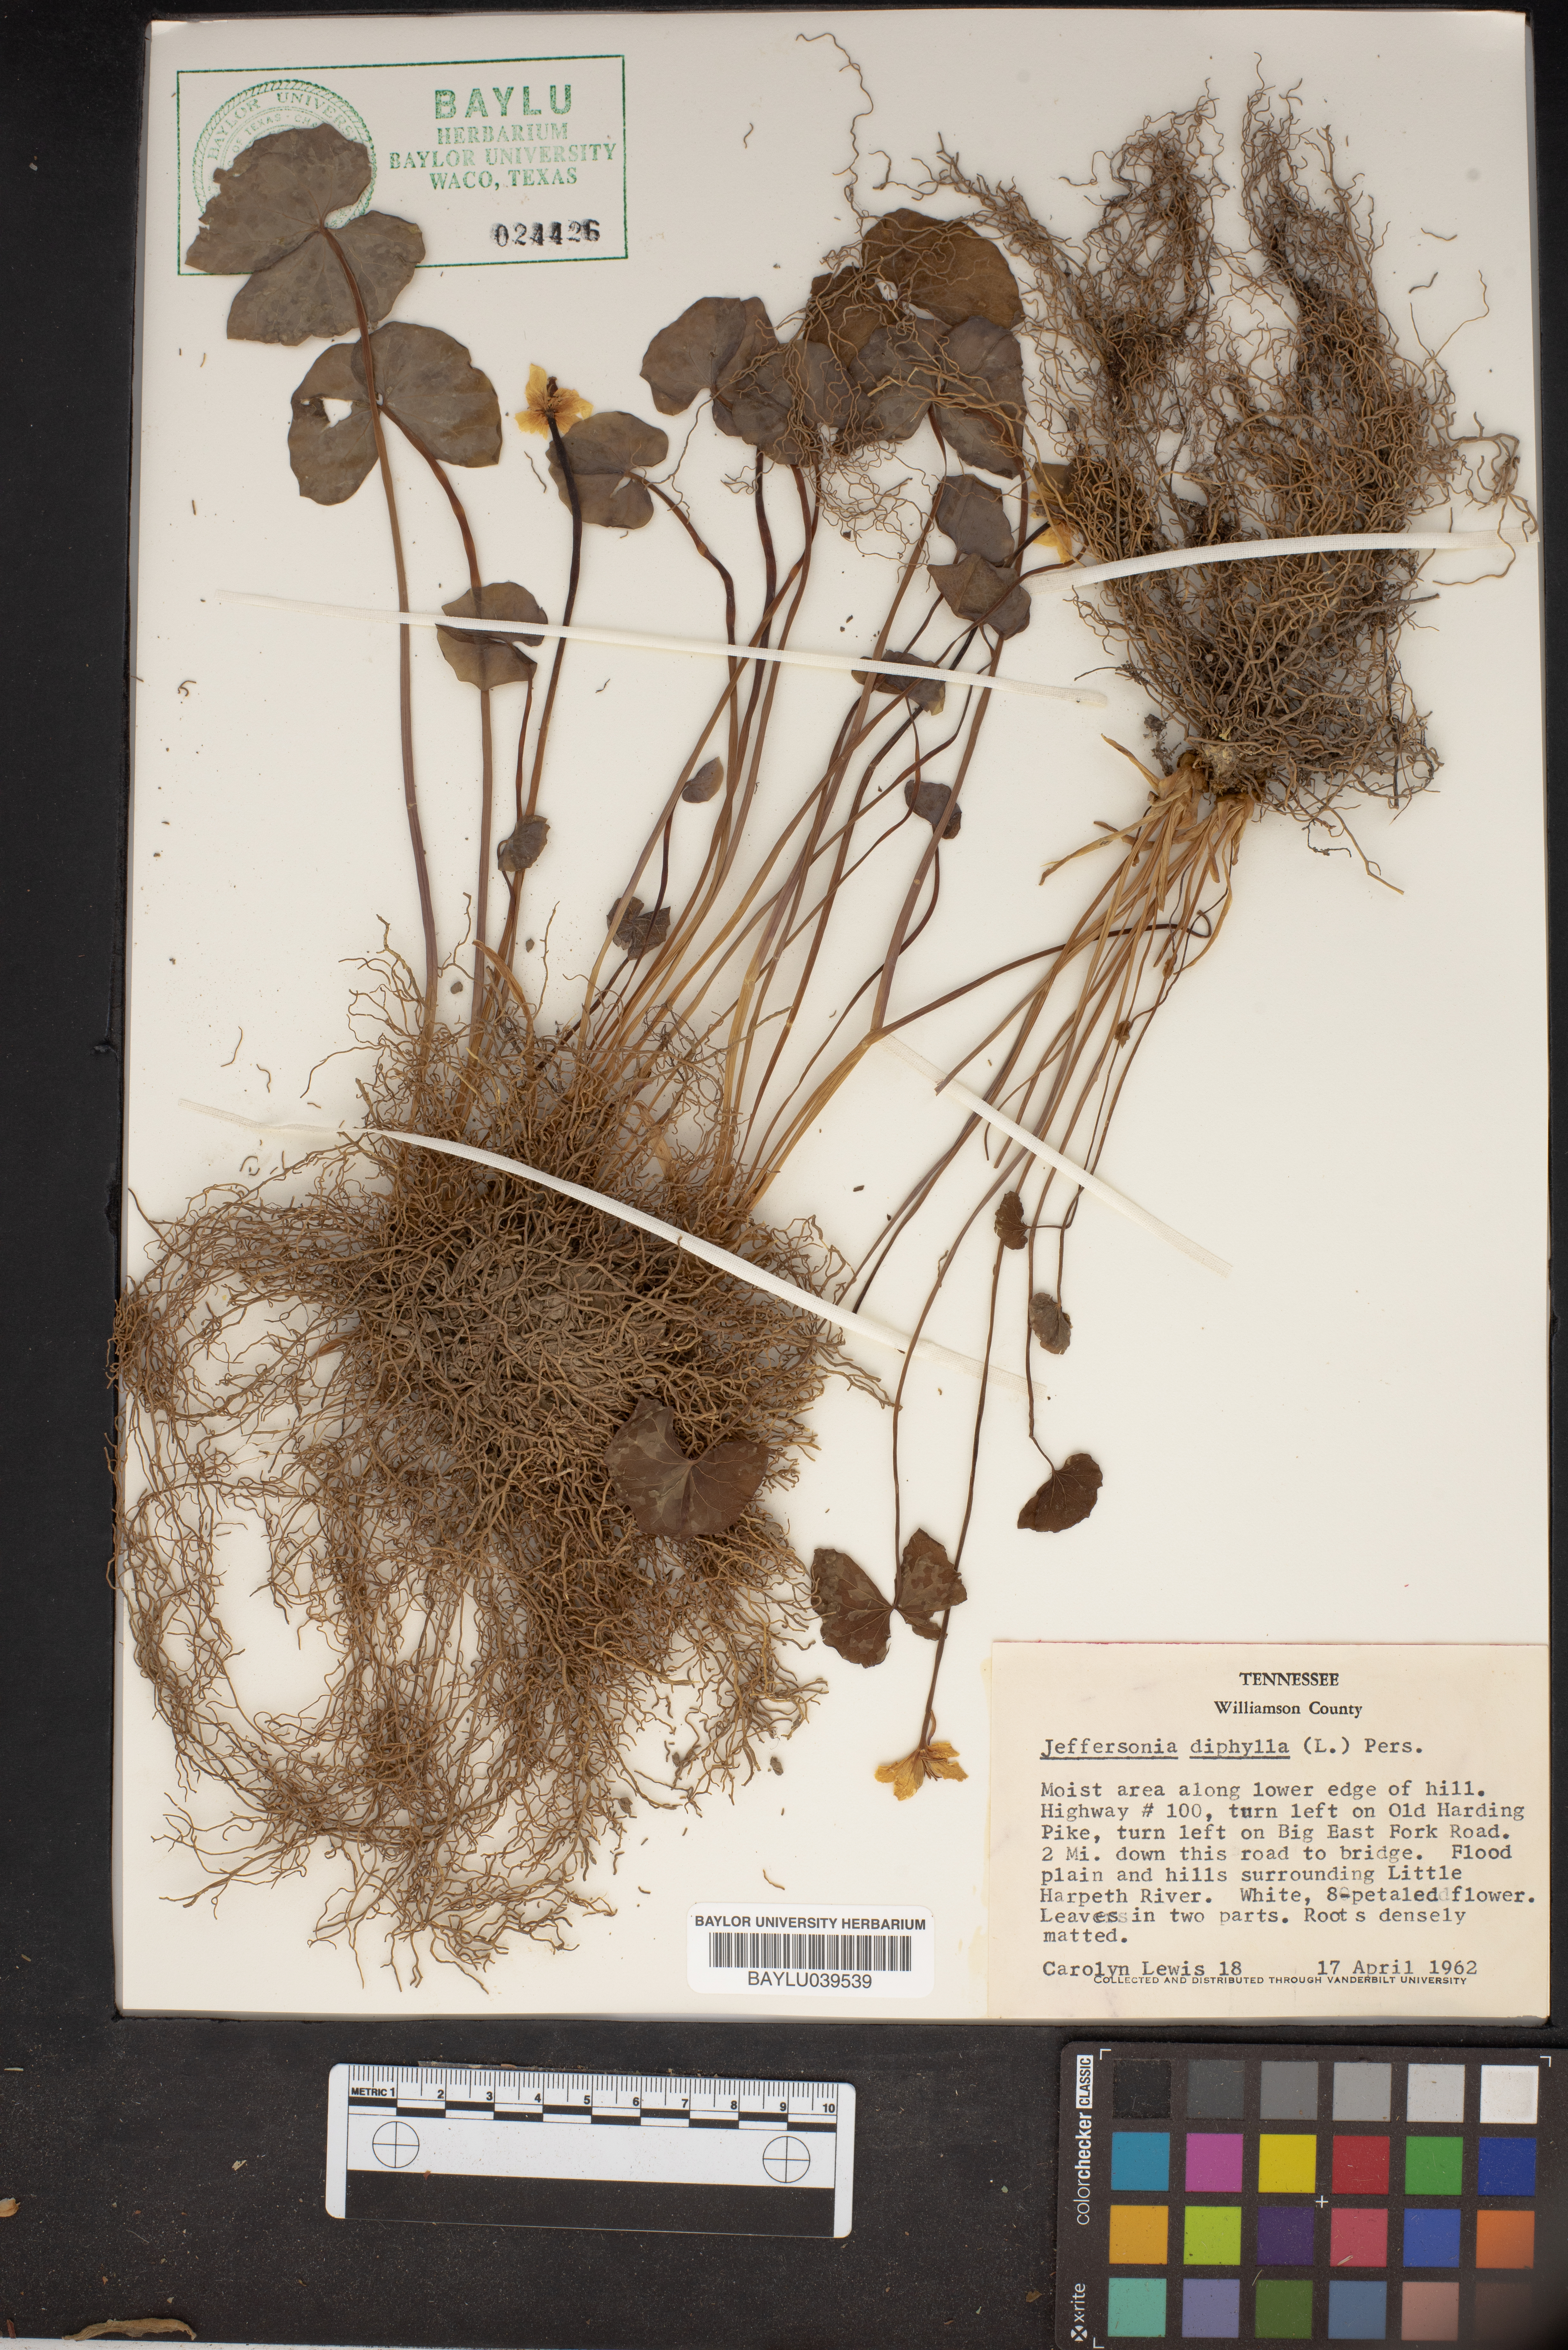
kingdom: Plantae
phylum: Tracheophyta
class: Magnoliopsida
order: Ranunculales
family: Berberidaceae
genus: Jeffersonia
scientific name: Jeffersonia diphylla
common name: Rheumatism-root
